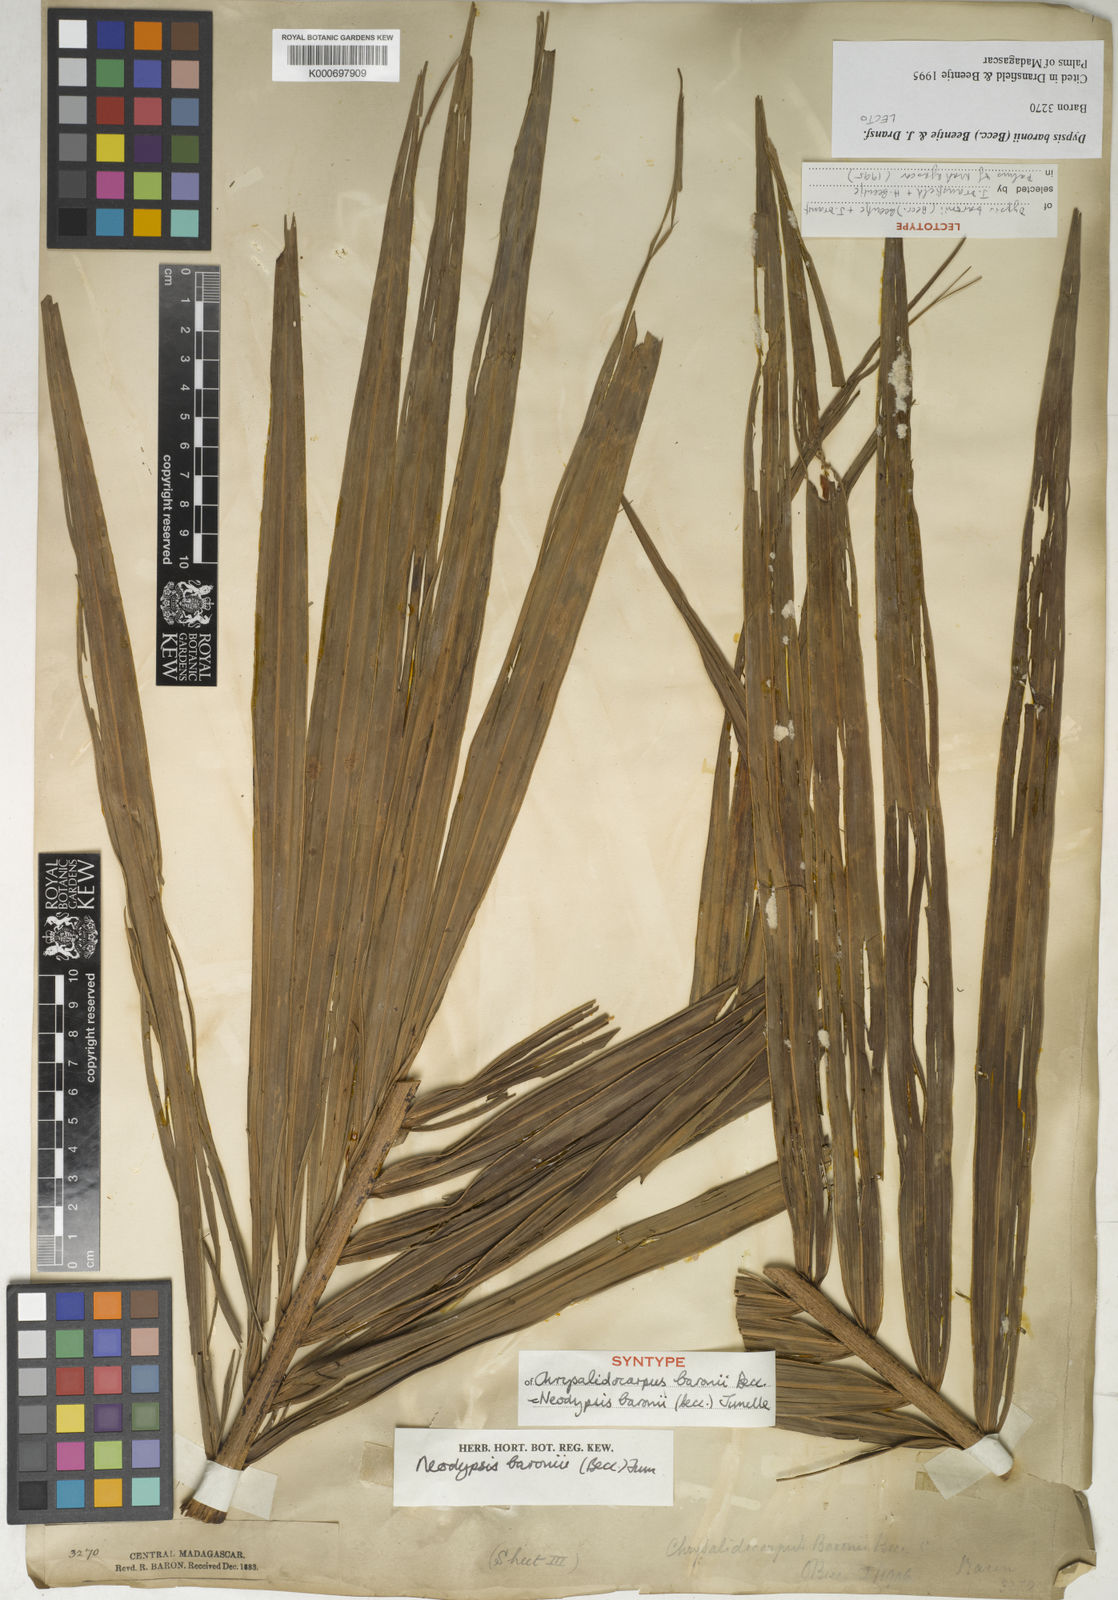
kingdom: Plantae
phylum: Tracheophyta
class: Liliopsida
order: Arecales
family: Arecaceae
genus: Dypsis
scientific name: Dypsis baronii
